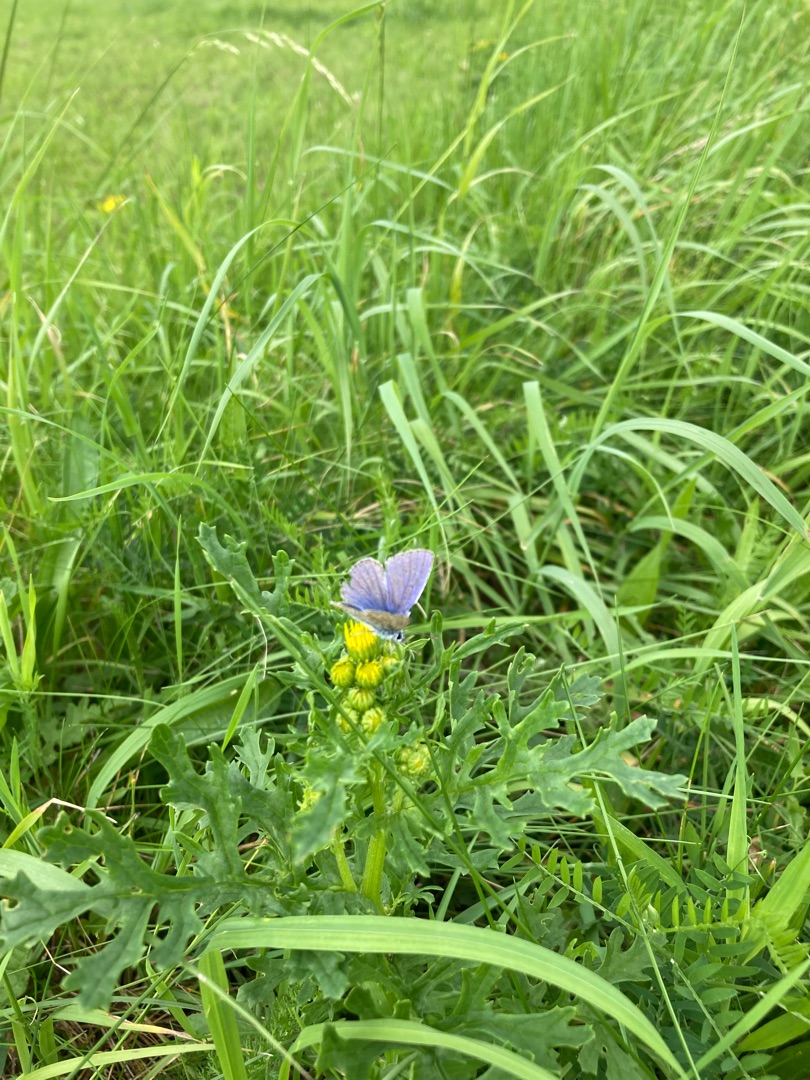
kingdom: Animalia
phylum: Arthropoda
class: Insecta
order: Lepidoptera
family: Lycaenidae
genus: Polyommatus
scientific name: Polyommatus icarus
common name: Almindelig blåfugl
